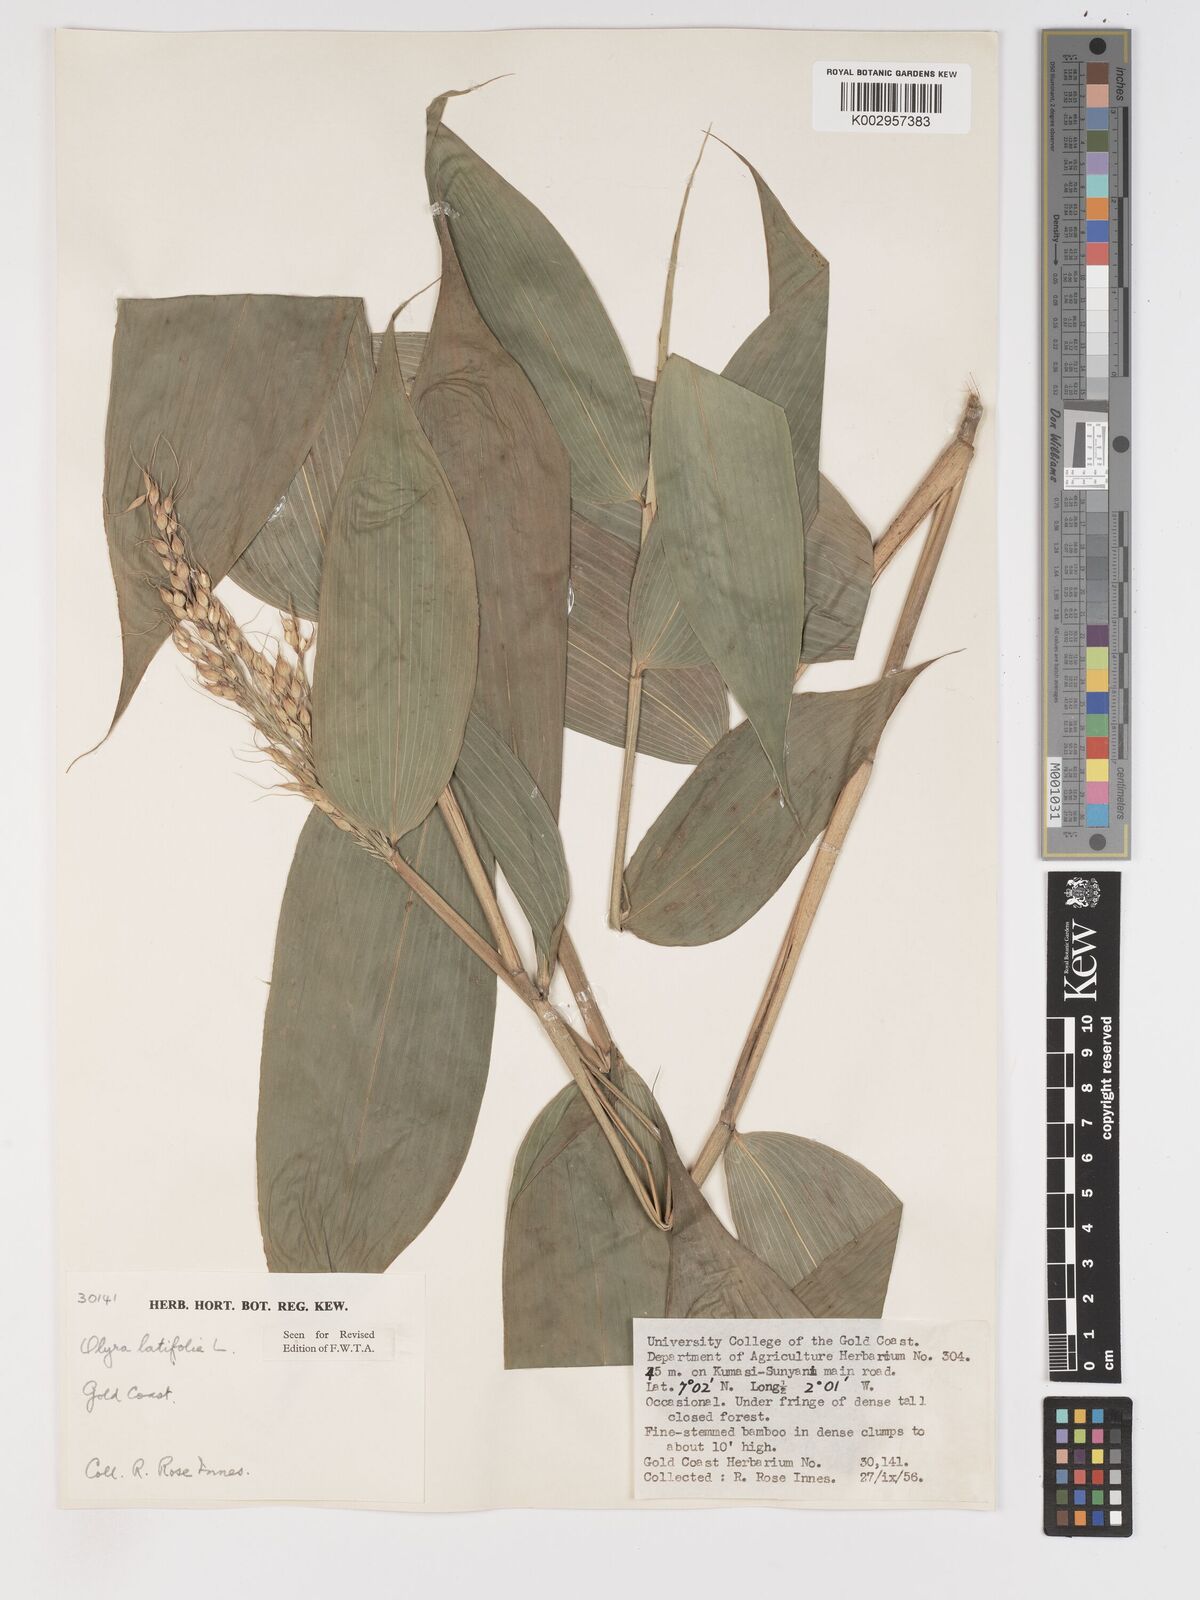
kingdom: Plantae
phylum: Tracheophyta
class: Liliopsida
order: Poales
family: Poaceae
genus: Olyra
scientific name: Olyra latifolia
